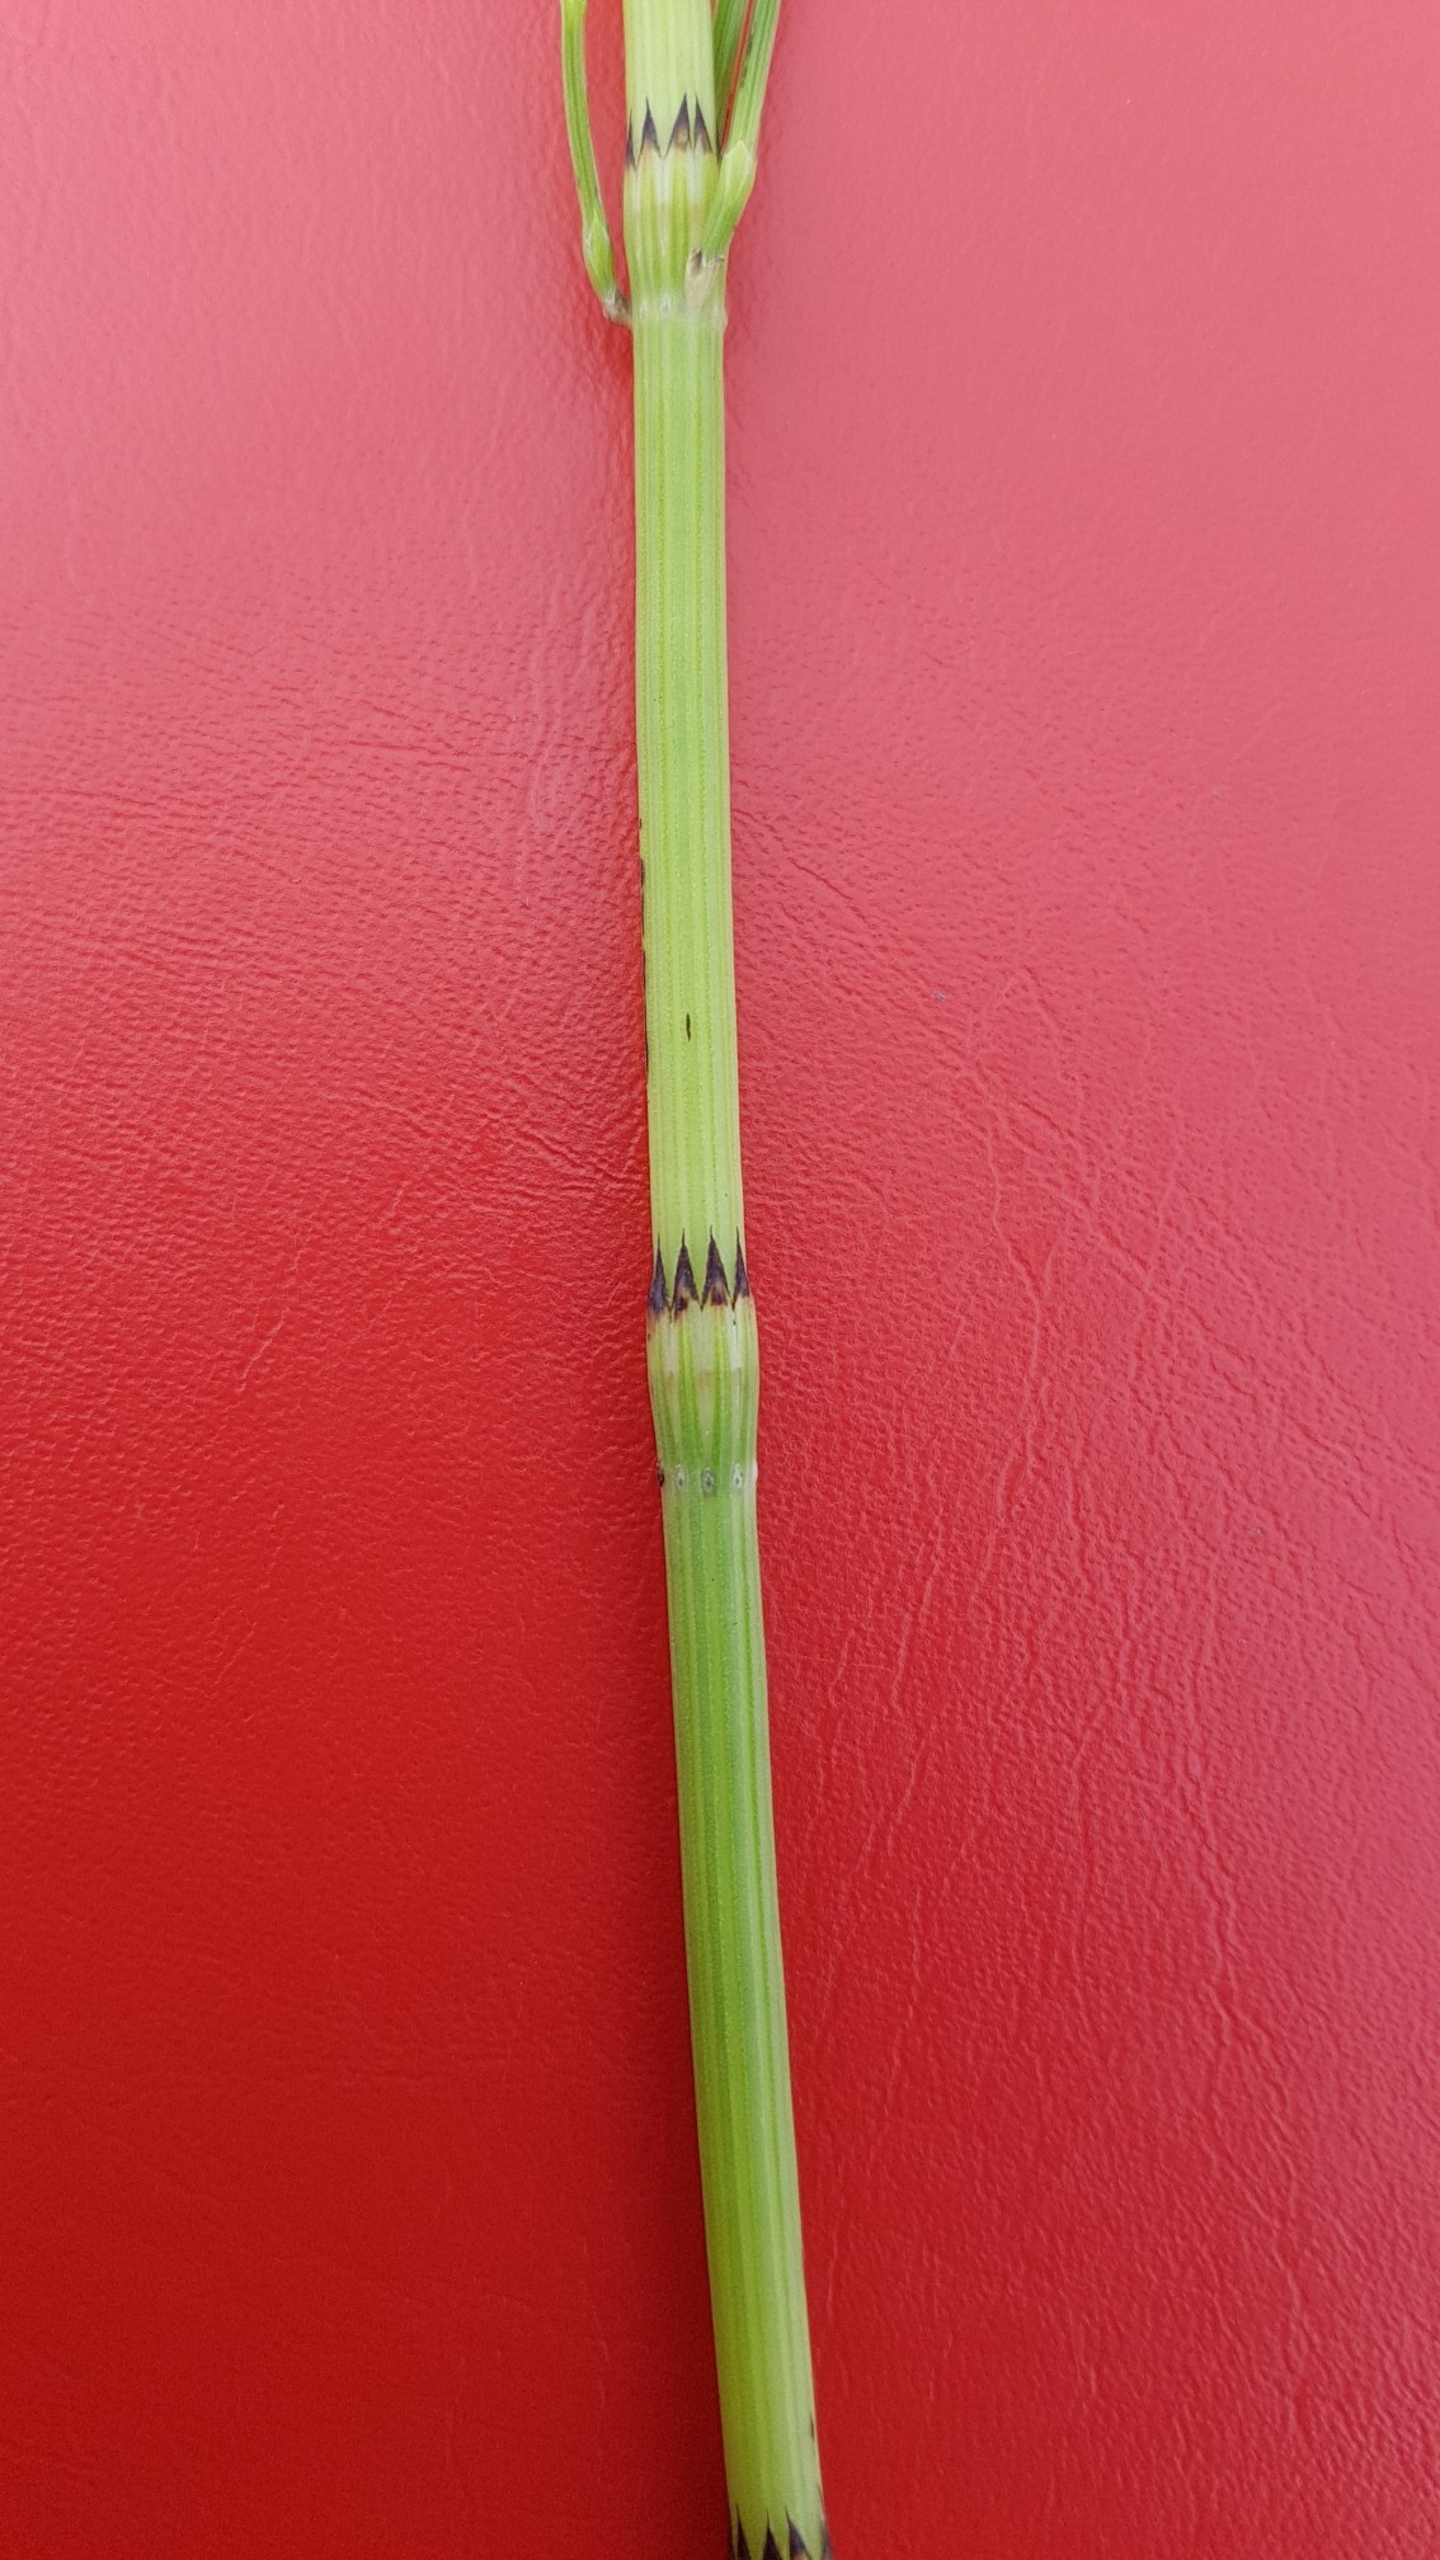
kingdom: Plantae
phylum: Tracheophyta
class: Polypodiopsida
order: Equisetales
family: Equisetaceae
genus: Equisetum
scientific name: Equisetum arvense
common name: Ager-padderok
